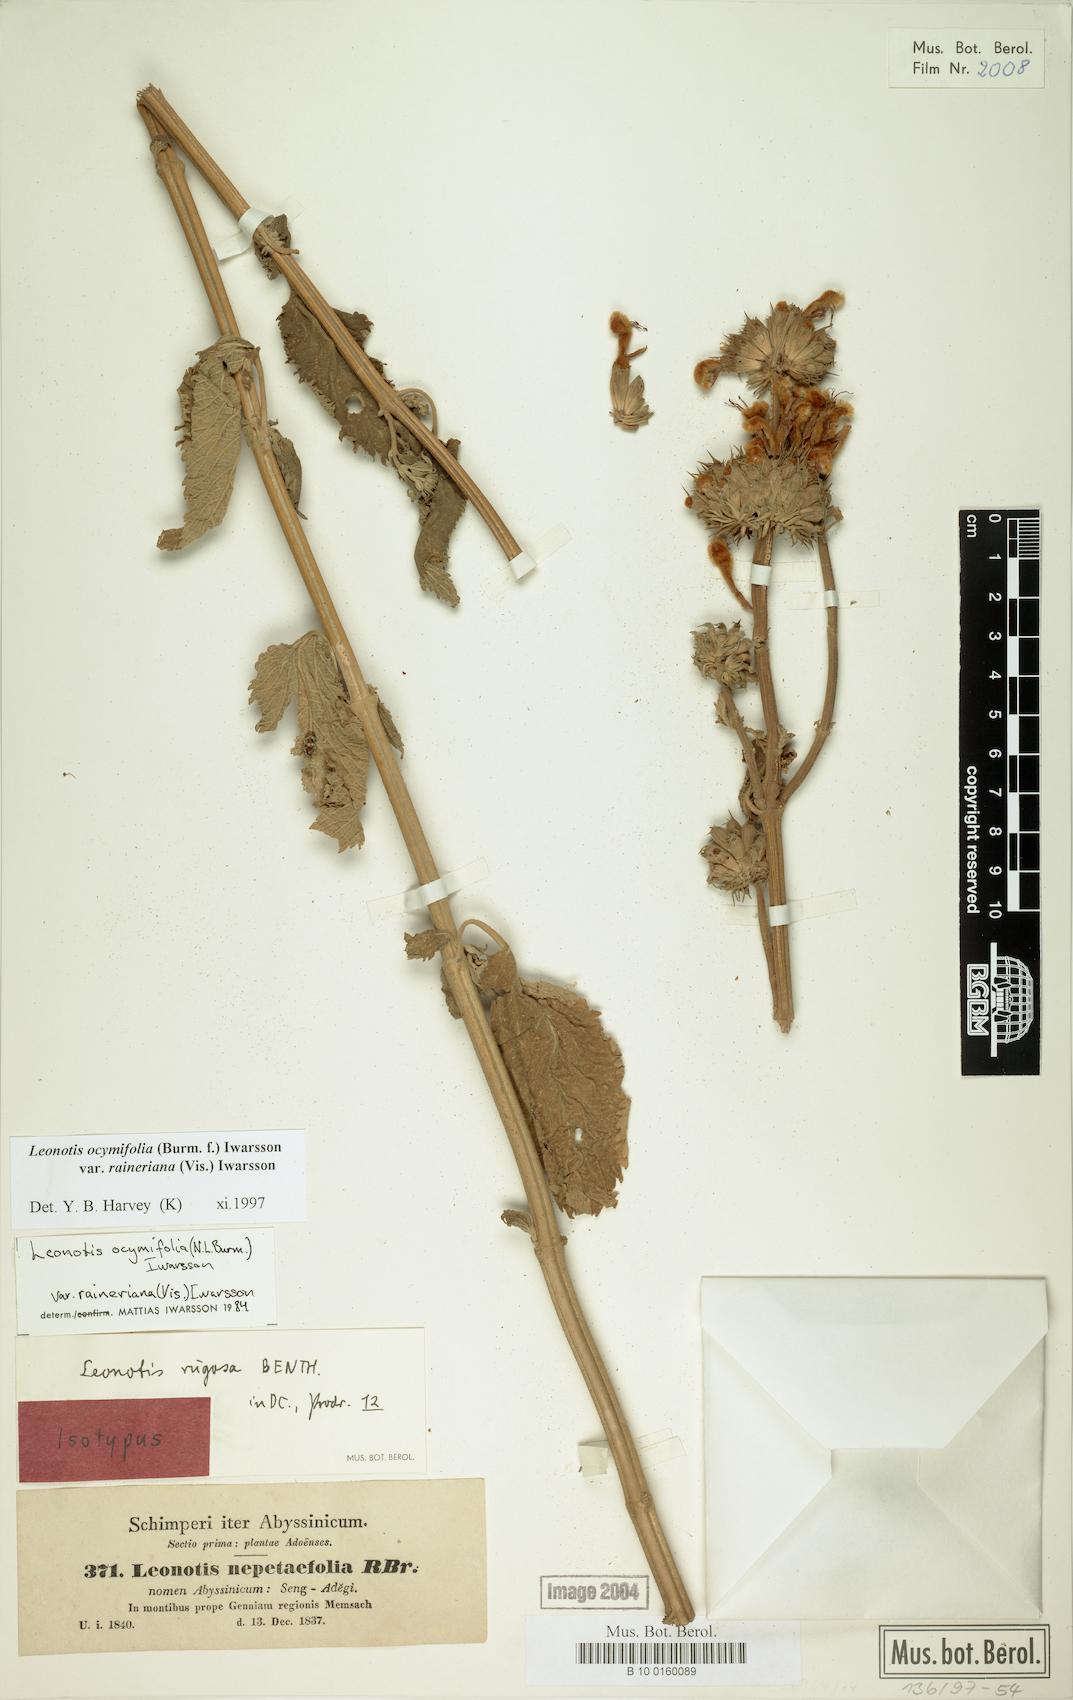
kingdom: Plantae
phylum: Tracheophyta
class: Magnoliopsida
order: Lamiales
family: Lamiaceae
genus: Leonotis
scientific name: Leonotis ocymifolia
